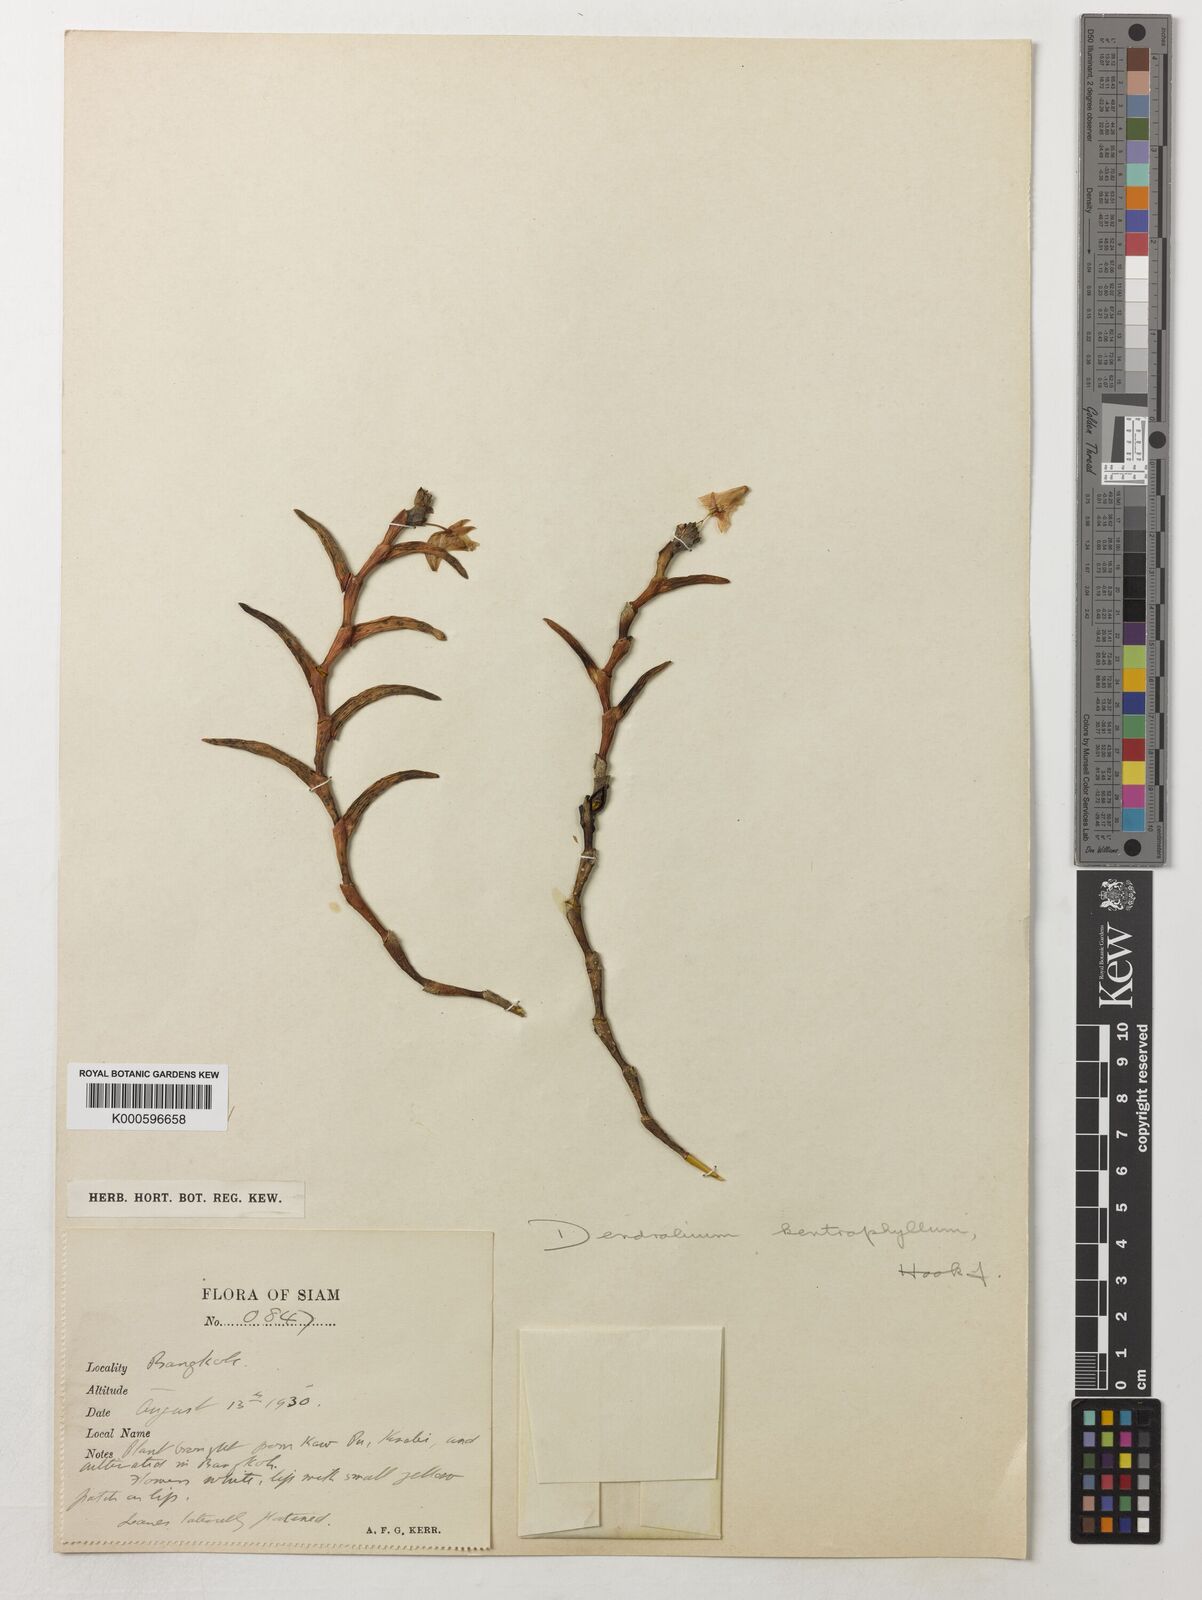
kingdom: Plantae
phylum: Tracheophyta
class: Liliopsida
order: Asparagales
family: Orchidaceae
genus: Dendrobium
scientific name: Dendrobium kentrophyllum
